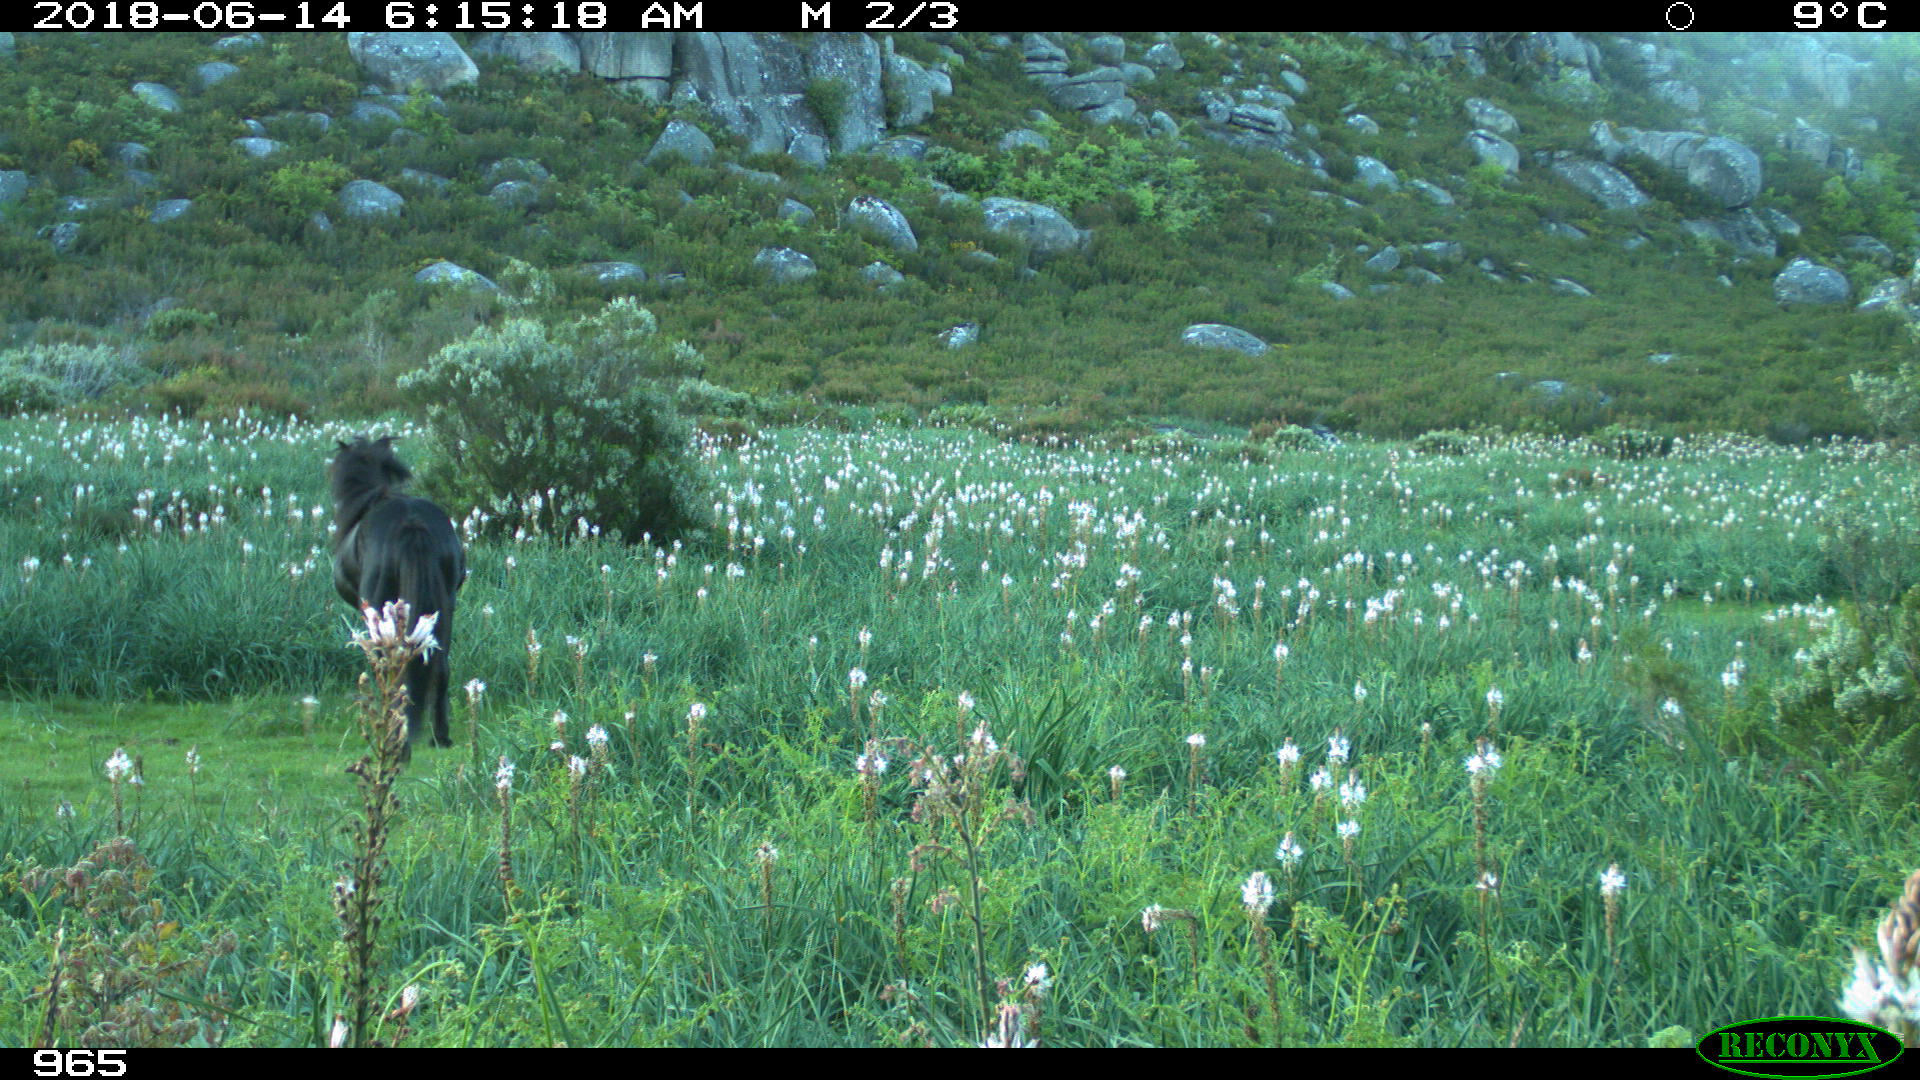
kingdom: Animalia
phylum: Chordata
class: Mammalia
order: Perissodactyla
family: Equidae
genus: Equus
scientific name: Equus caballus
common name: Horse
